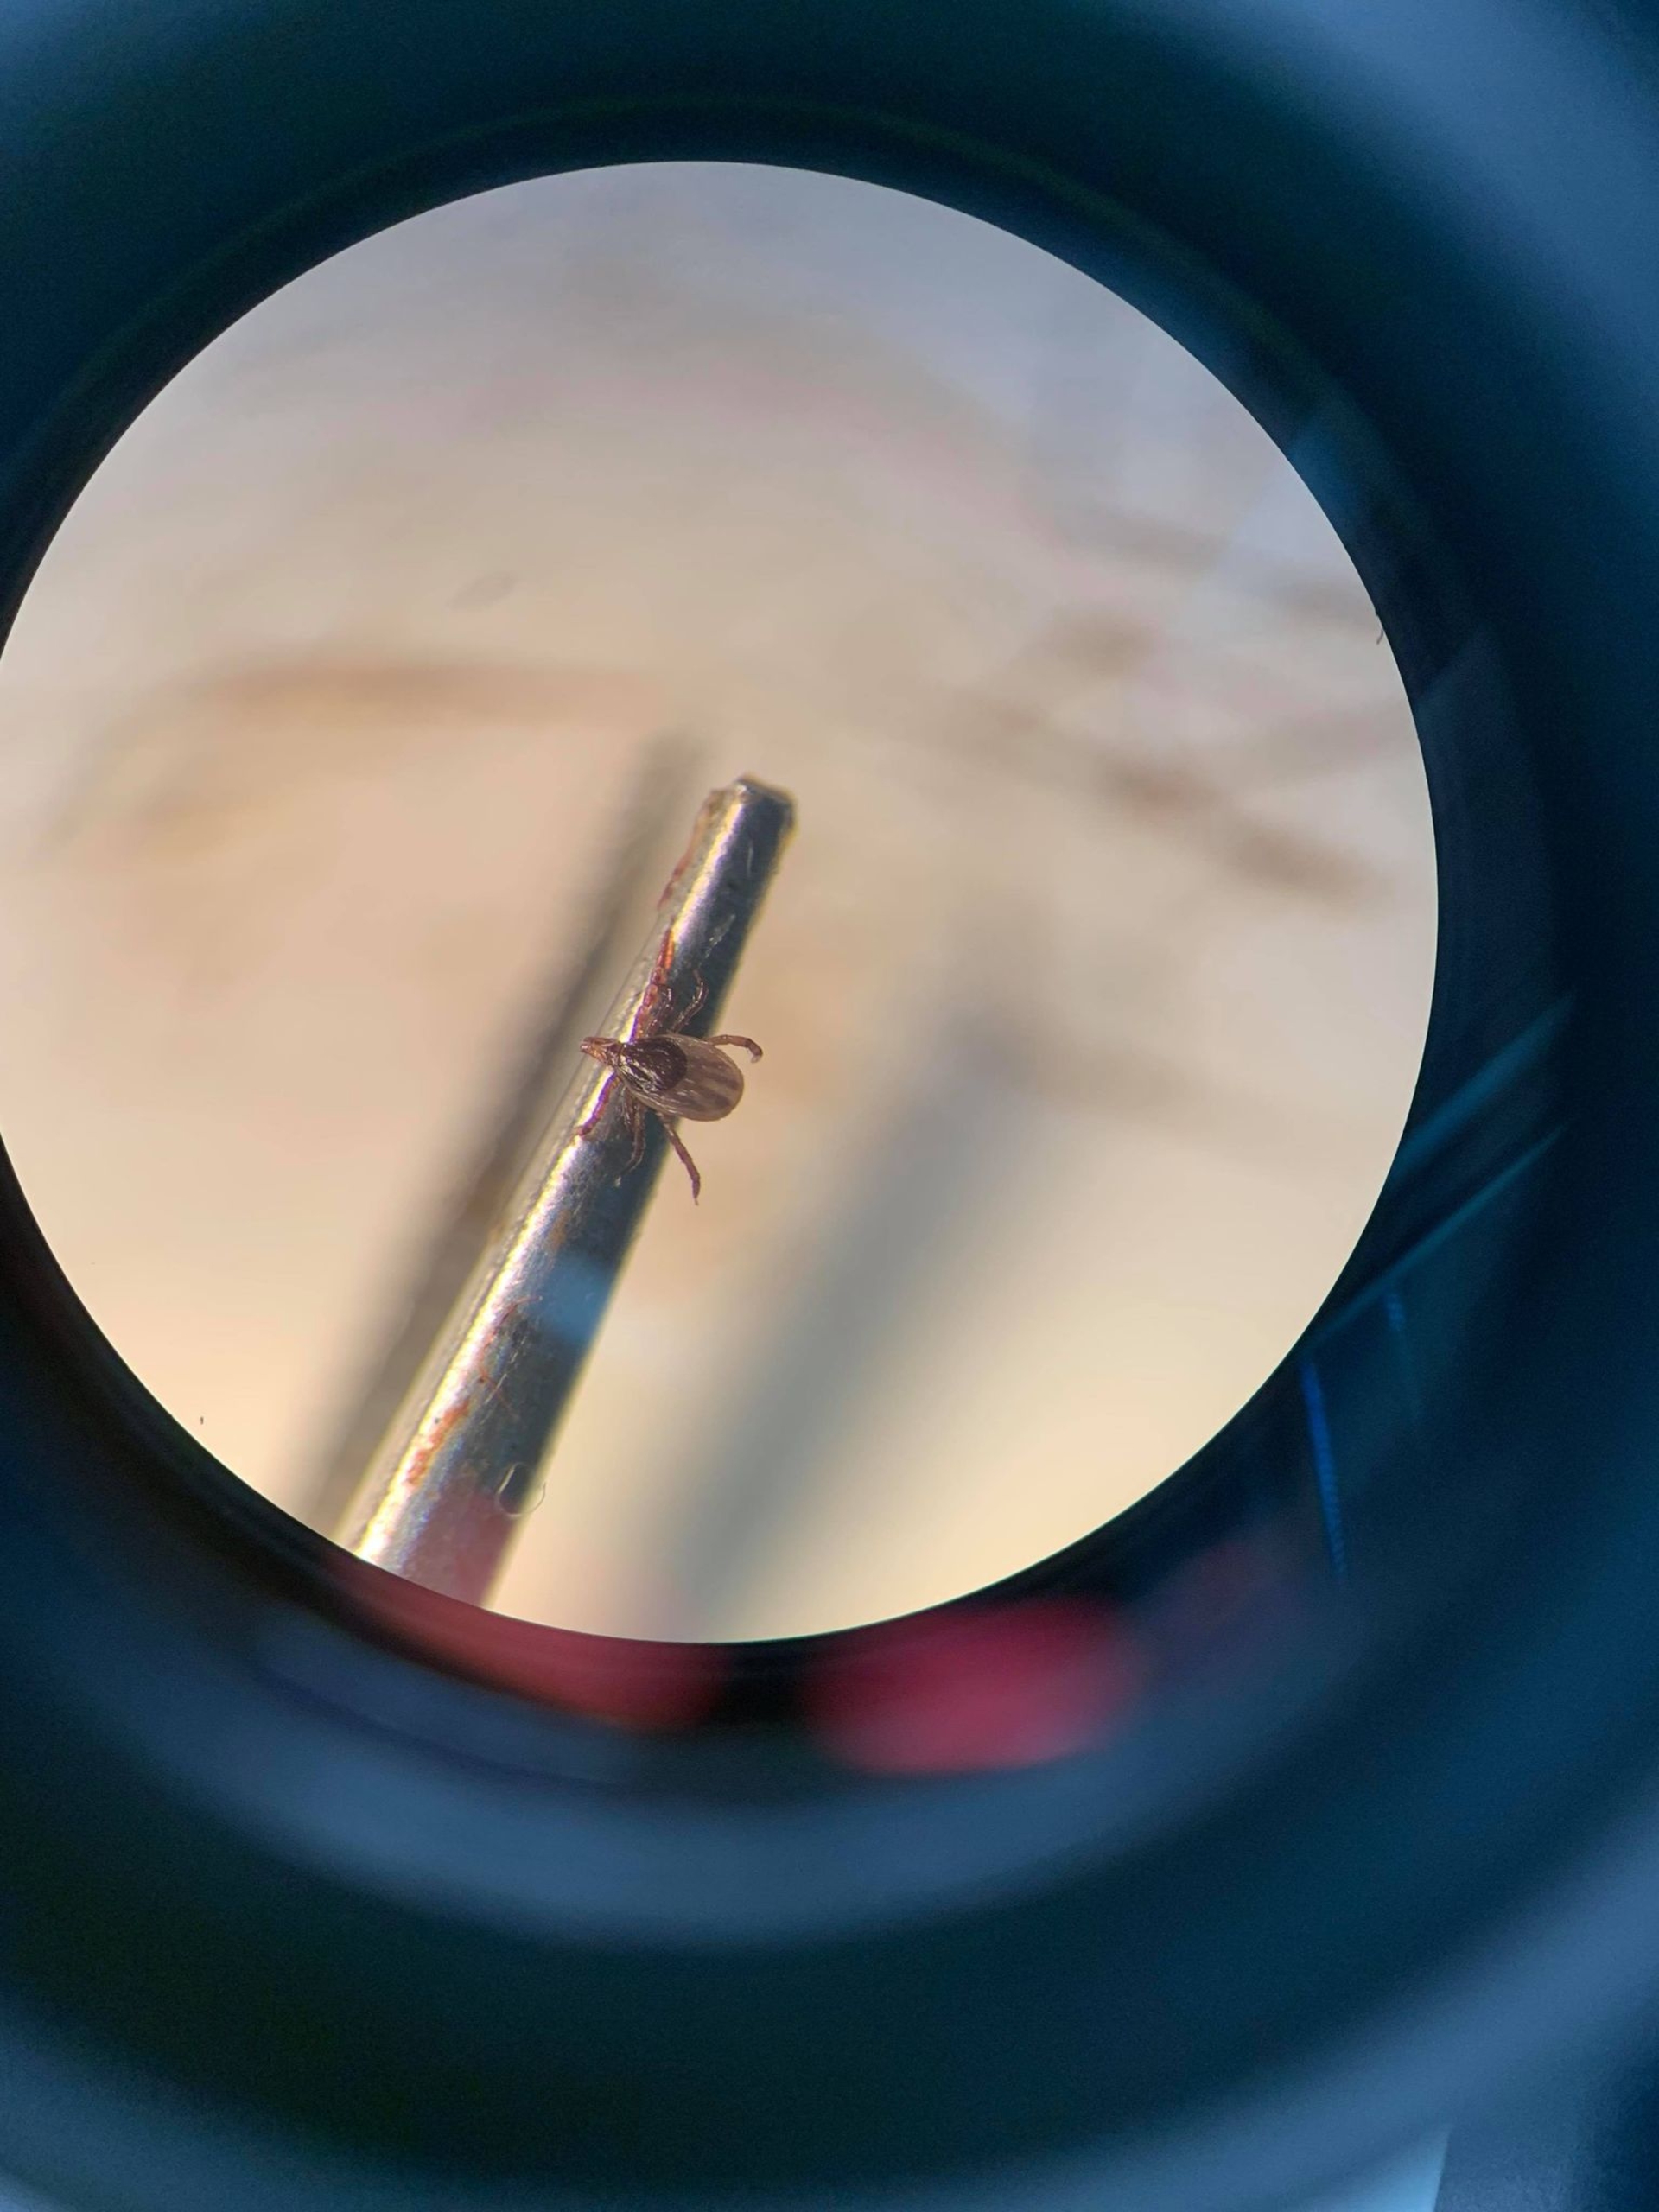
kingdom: Animalia
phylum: Arthropoda
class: Arachnida
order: Ixodida
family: Ixodidae
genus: Ixodes
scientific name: Ixodes ricinus
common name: Skovflåt
